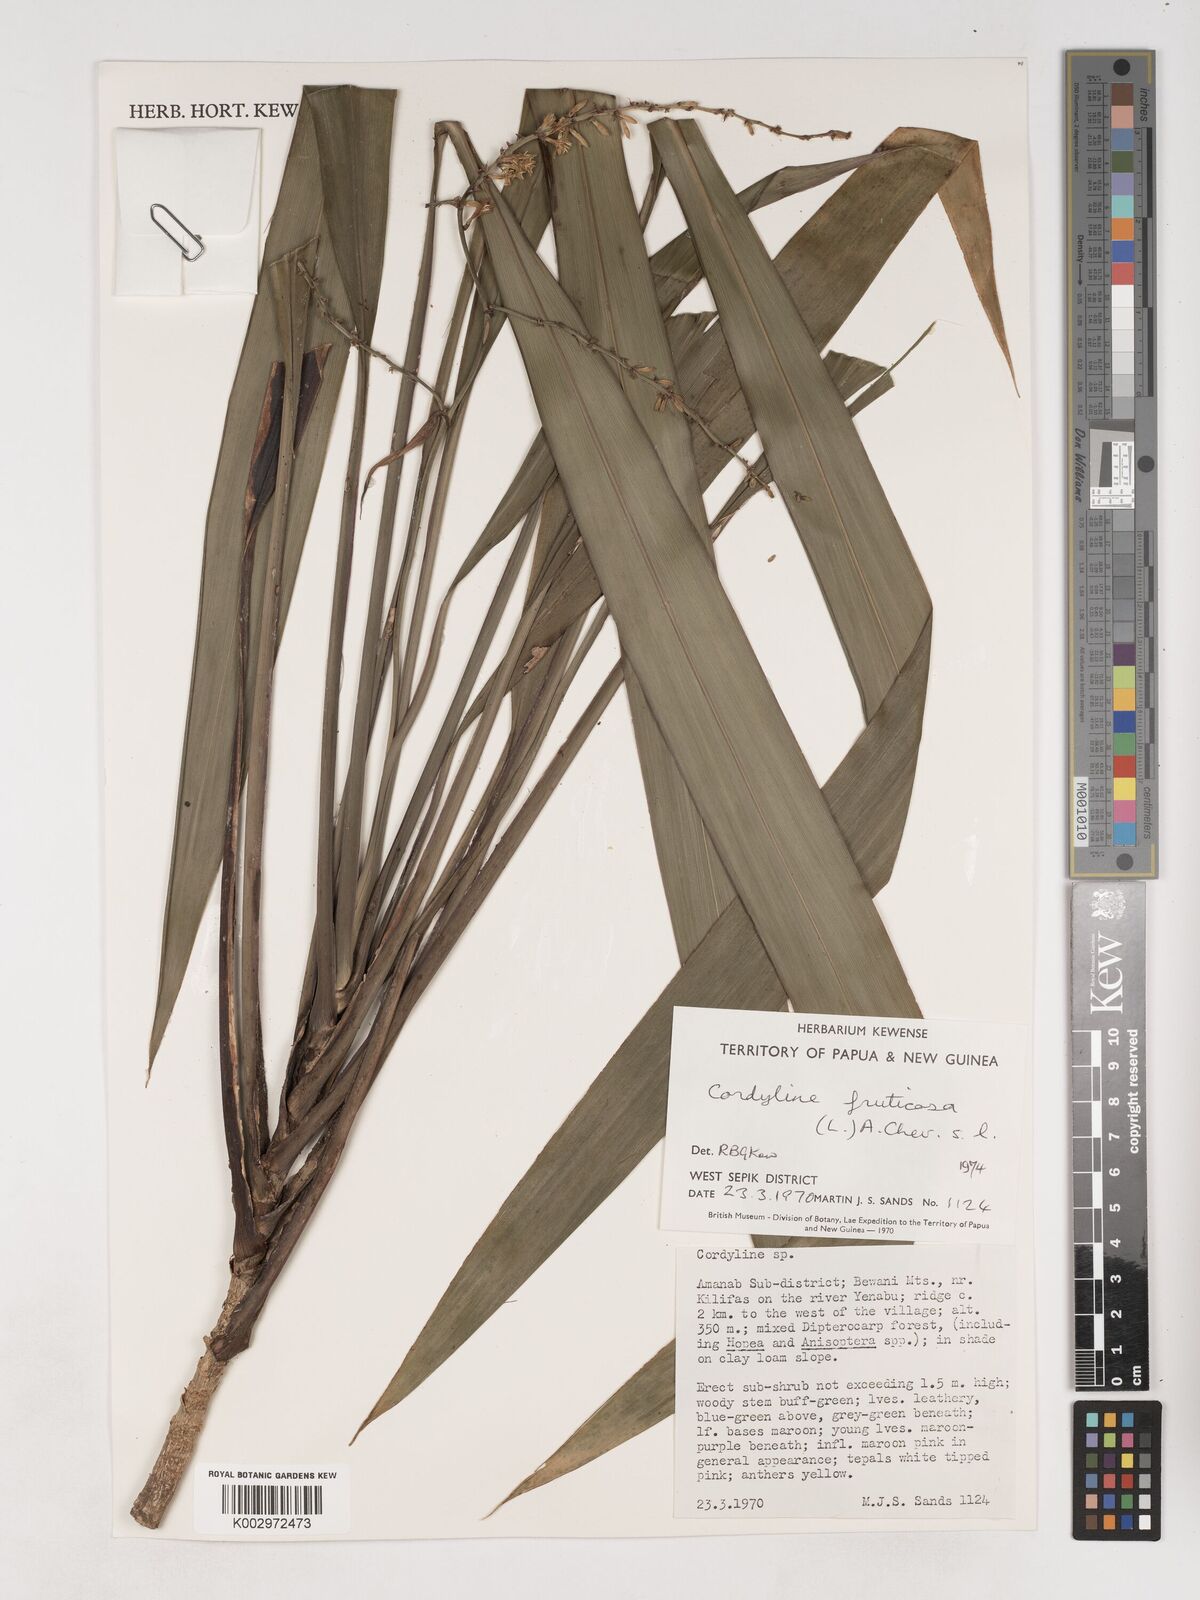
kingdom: Plantae
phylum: Tracheophyta
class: Liliopsida
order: Asparagales
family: Asparagaceae
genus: Cordyline
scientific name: Cordyline fruticosa
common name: Good-luck-plant
